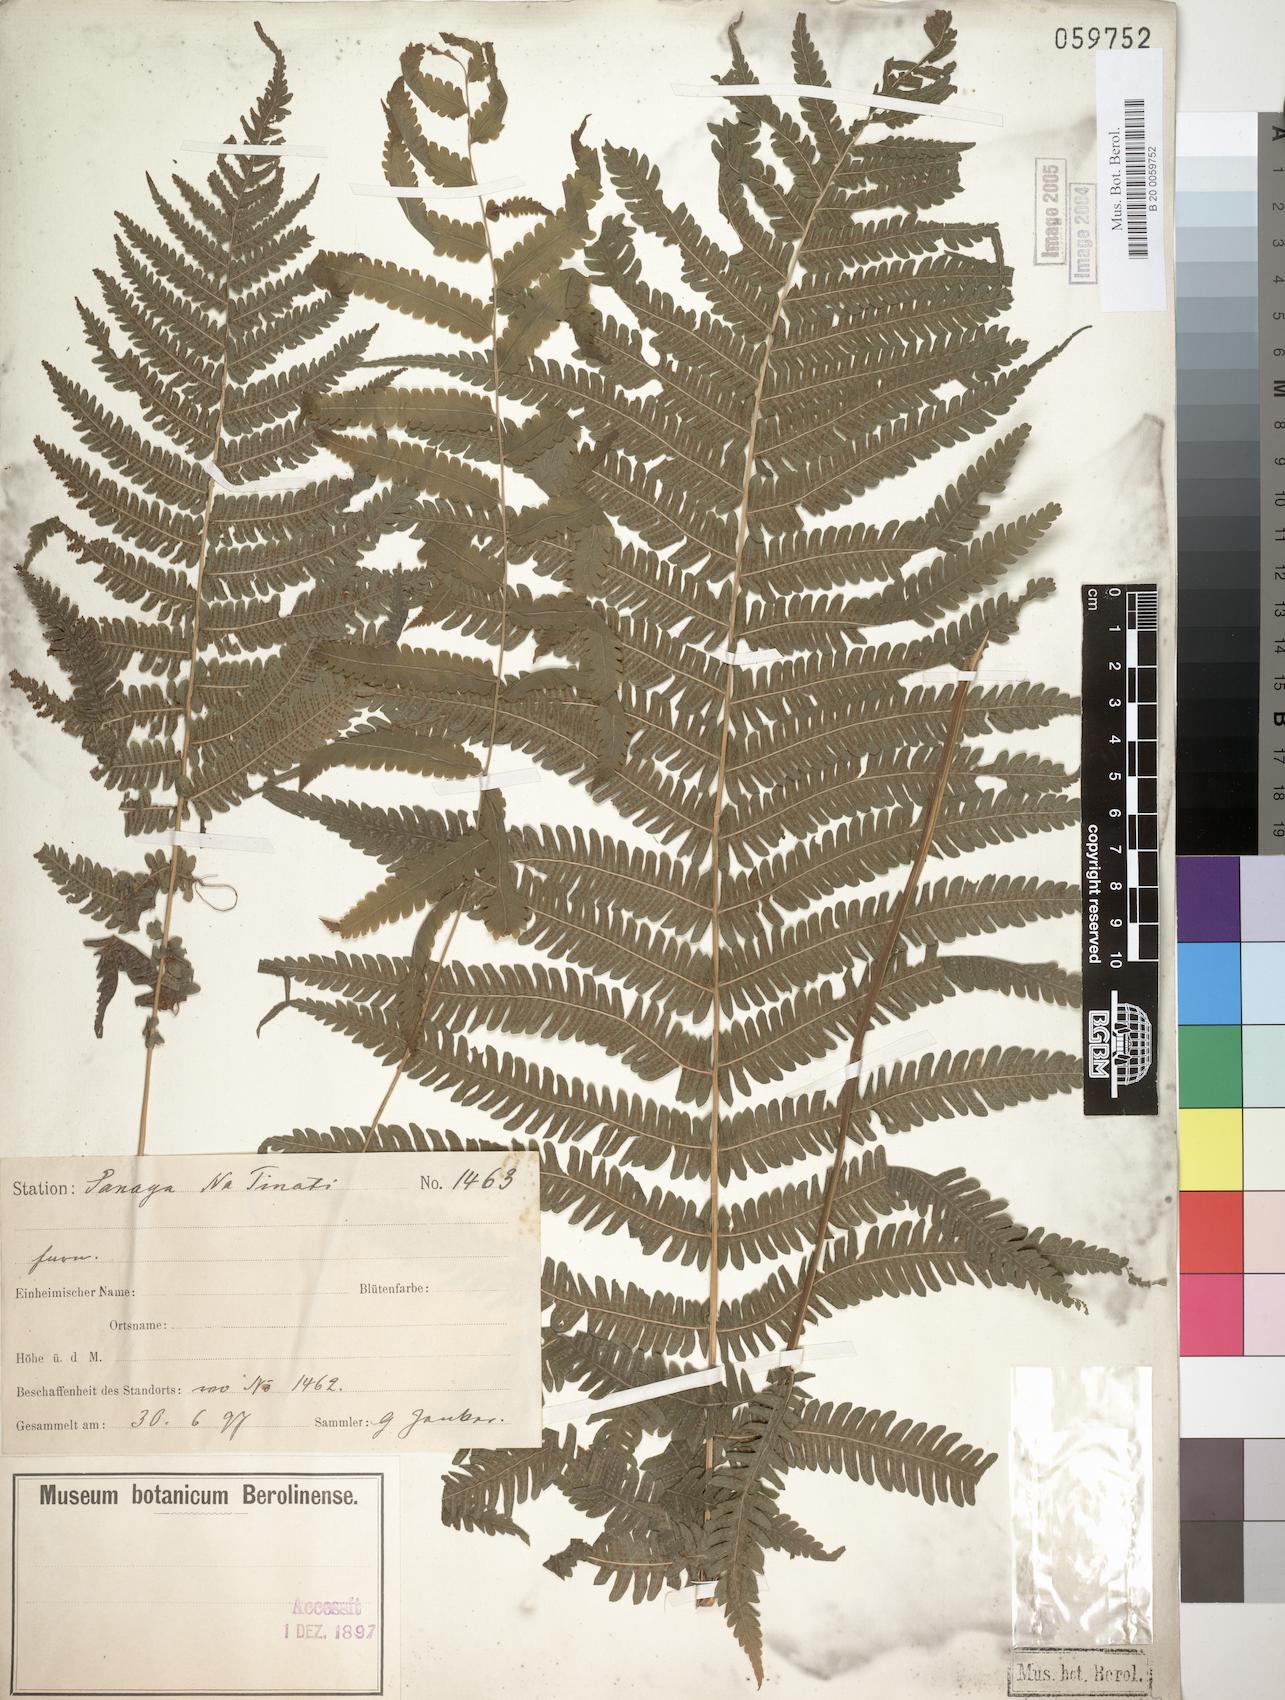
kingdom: Plantae
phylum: Tracheophyta
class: Polypodiopsida
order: Polypodiales
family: Thelypteridaceae
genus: Christella
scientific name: Christella dentata
